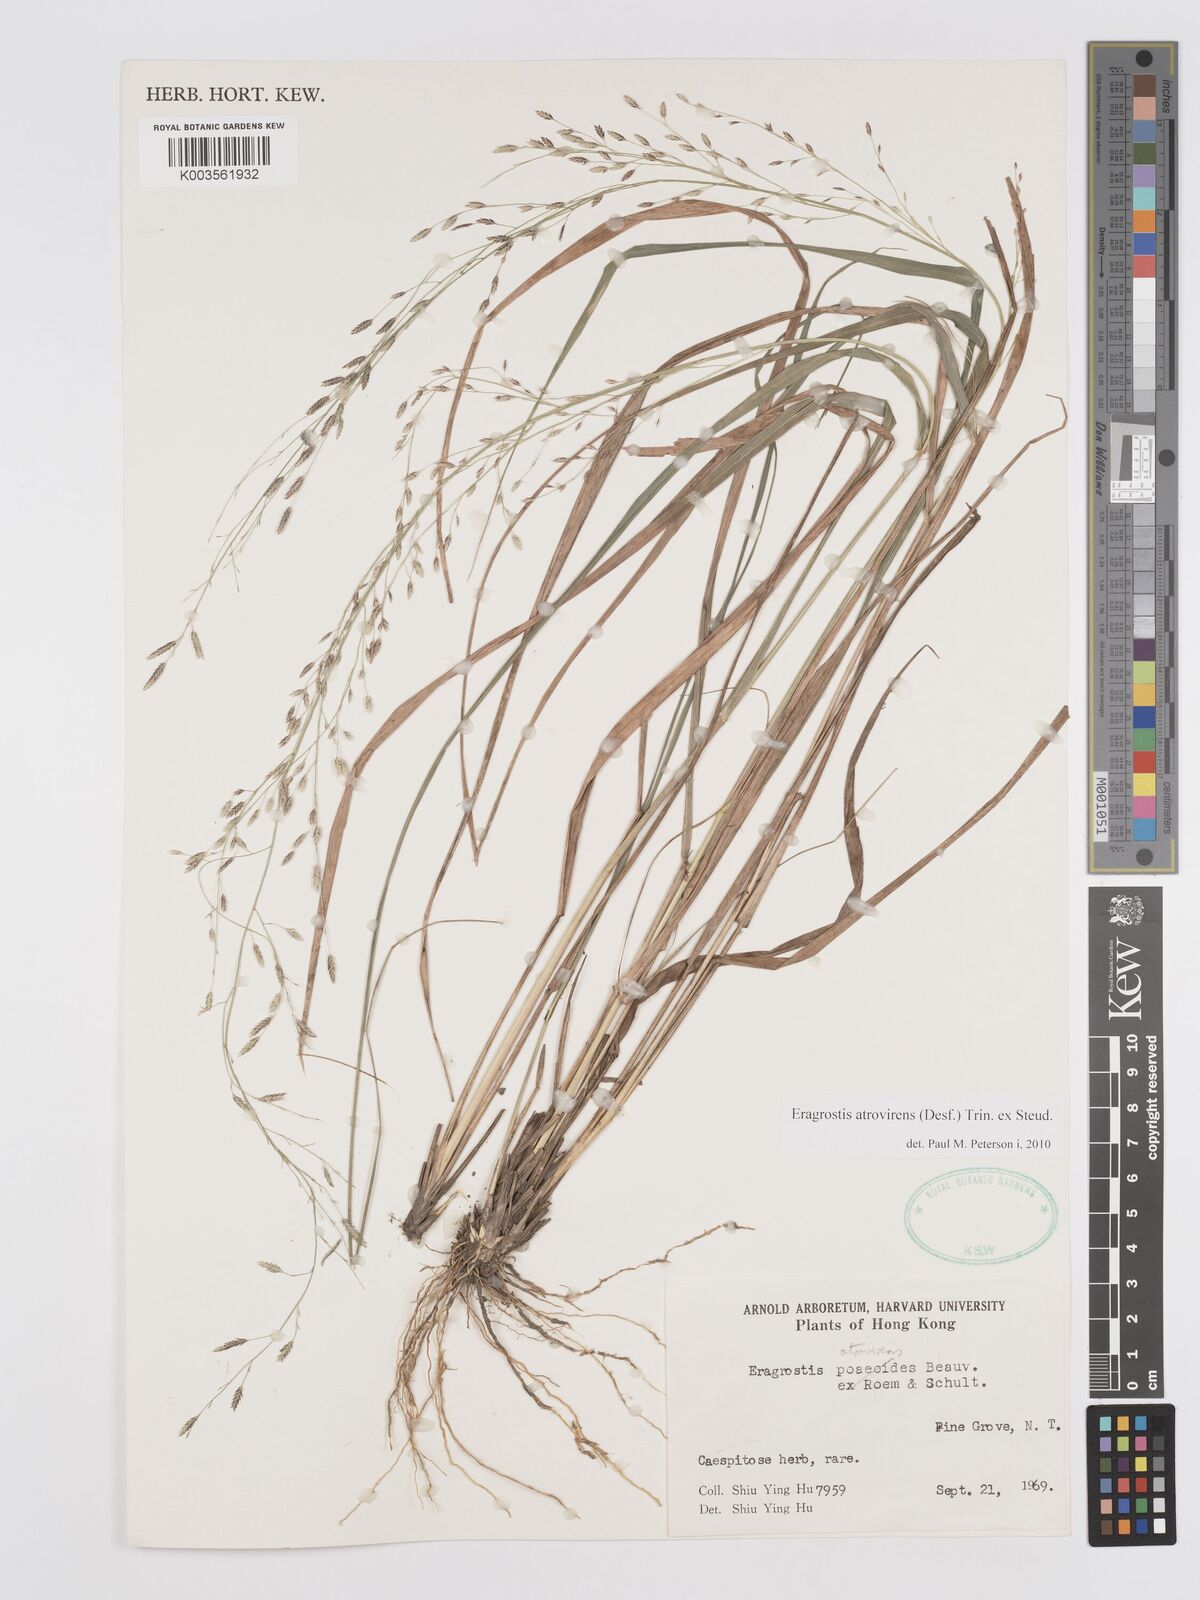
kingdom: Plantae
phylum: Tracheophyta
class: Liliopsida
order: Poales
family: Poaceae
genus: Eragrostis
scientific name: Eragrostis atrovirens
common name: Thalia lovegrass
